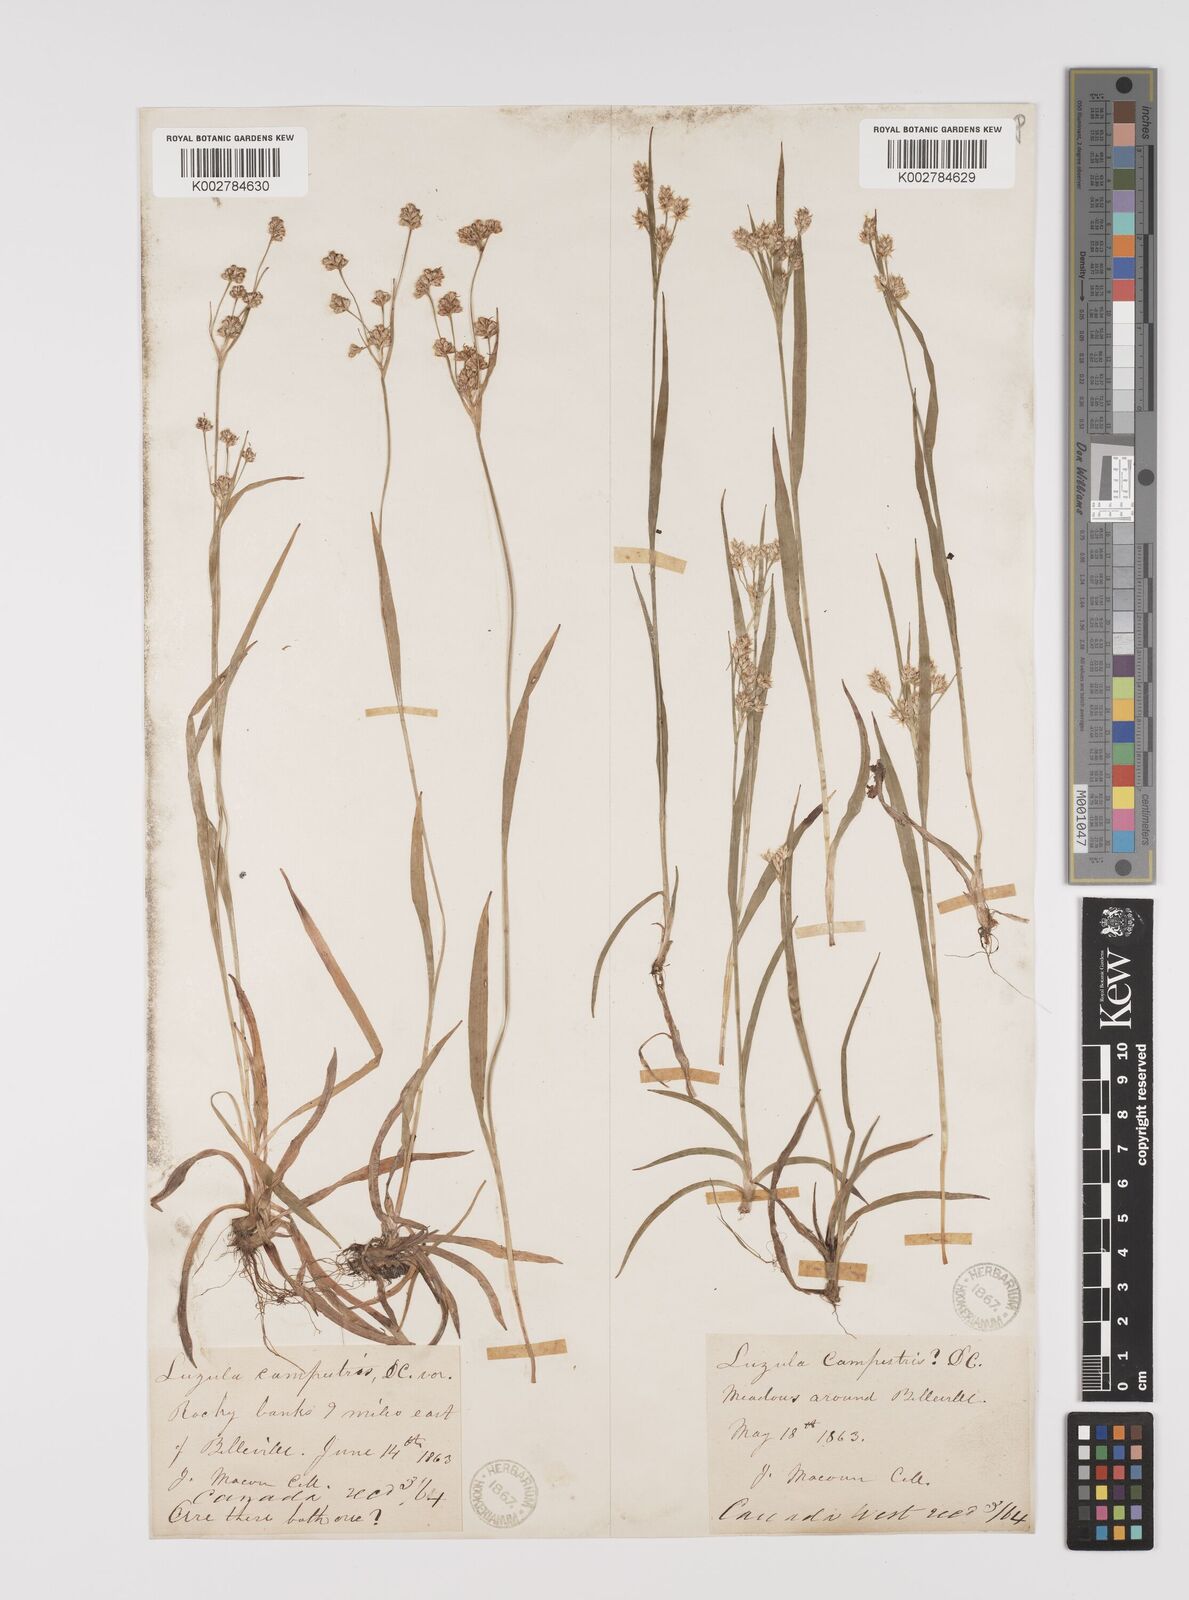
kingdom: Plantae
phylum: Tracheophyta
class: Liliopsida
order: Poales
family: Juncaceae
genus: Luzula
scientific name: Luzula campestris
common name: Field wood-rush
